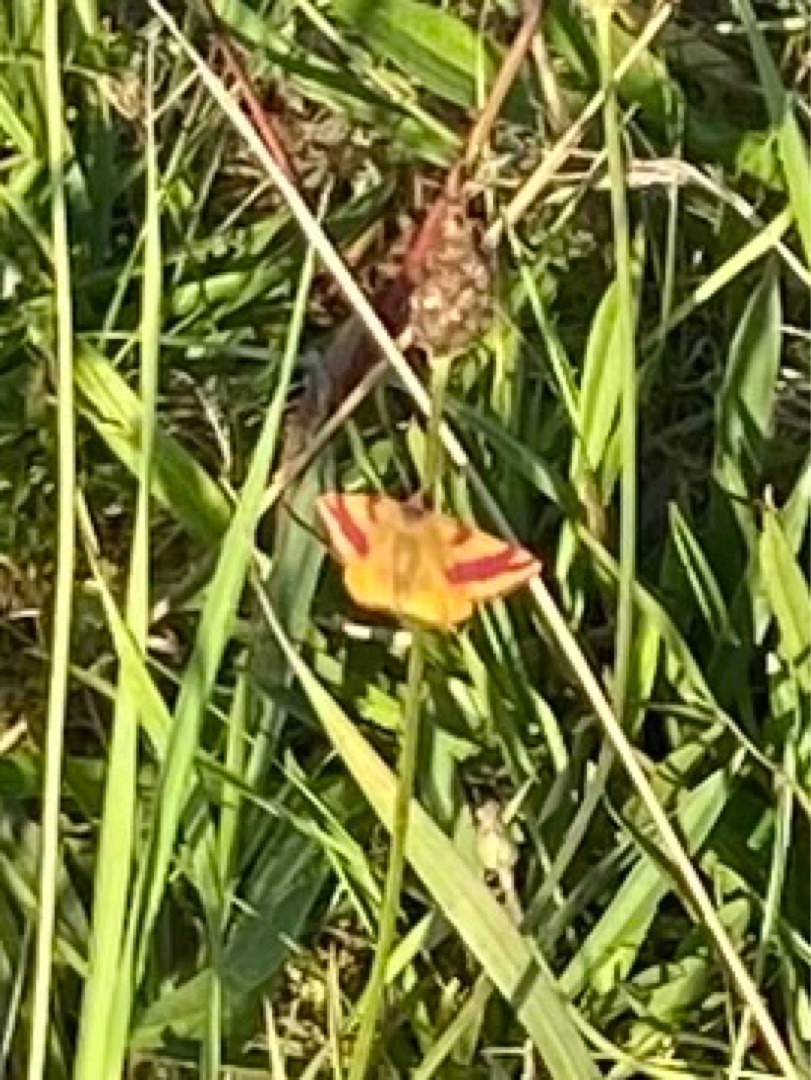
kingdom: Animalia
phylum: Arthropoda
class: Insecta
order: Lepidoptera
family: Geometridae
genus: Lythria
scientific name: Lythria cruentaria
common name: Purpurmåler
